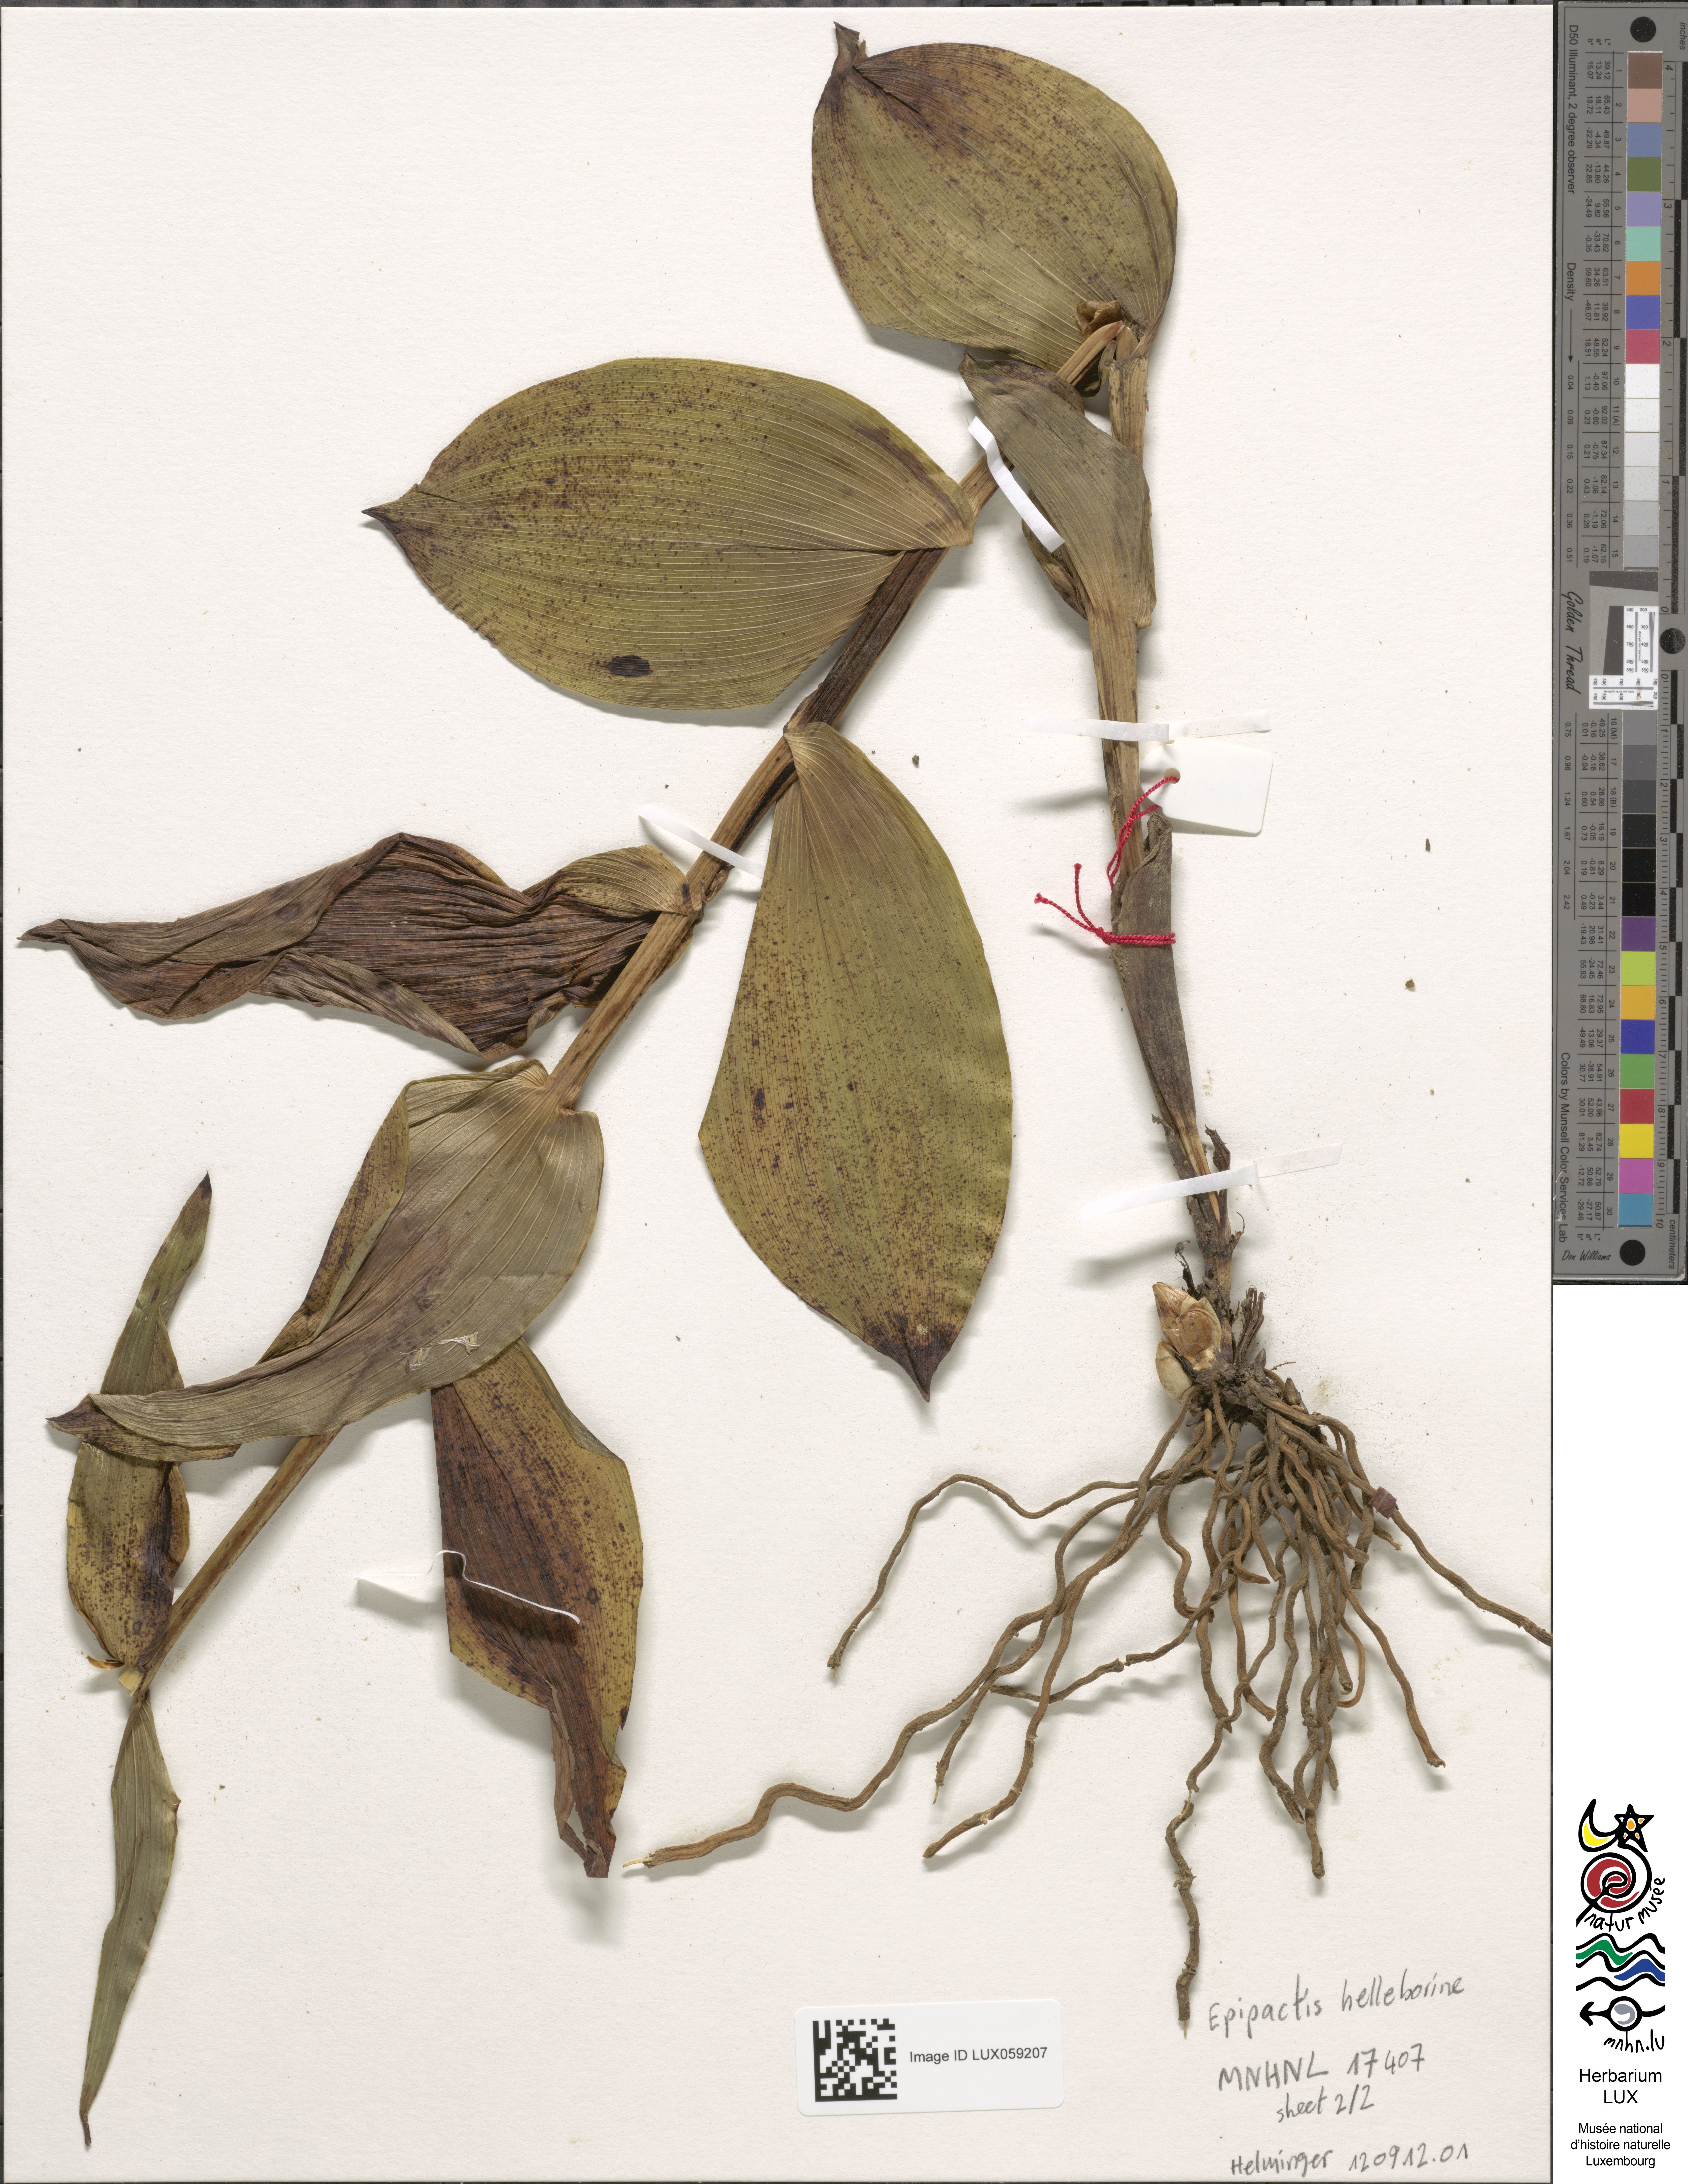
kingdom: Plantae
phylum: Tracheophyta
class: Liliopsida
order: Asparagales
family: Orchidaceae
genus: Epipactis
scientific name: Epipactis helleborine
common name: Broad-leaved helleborine
